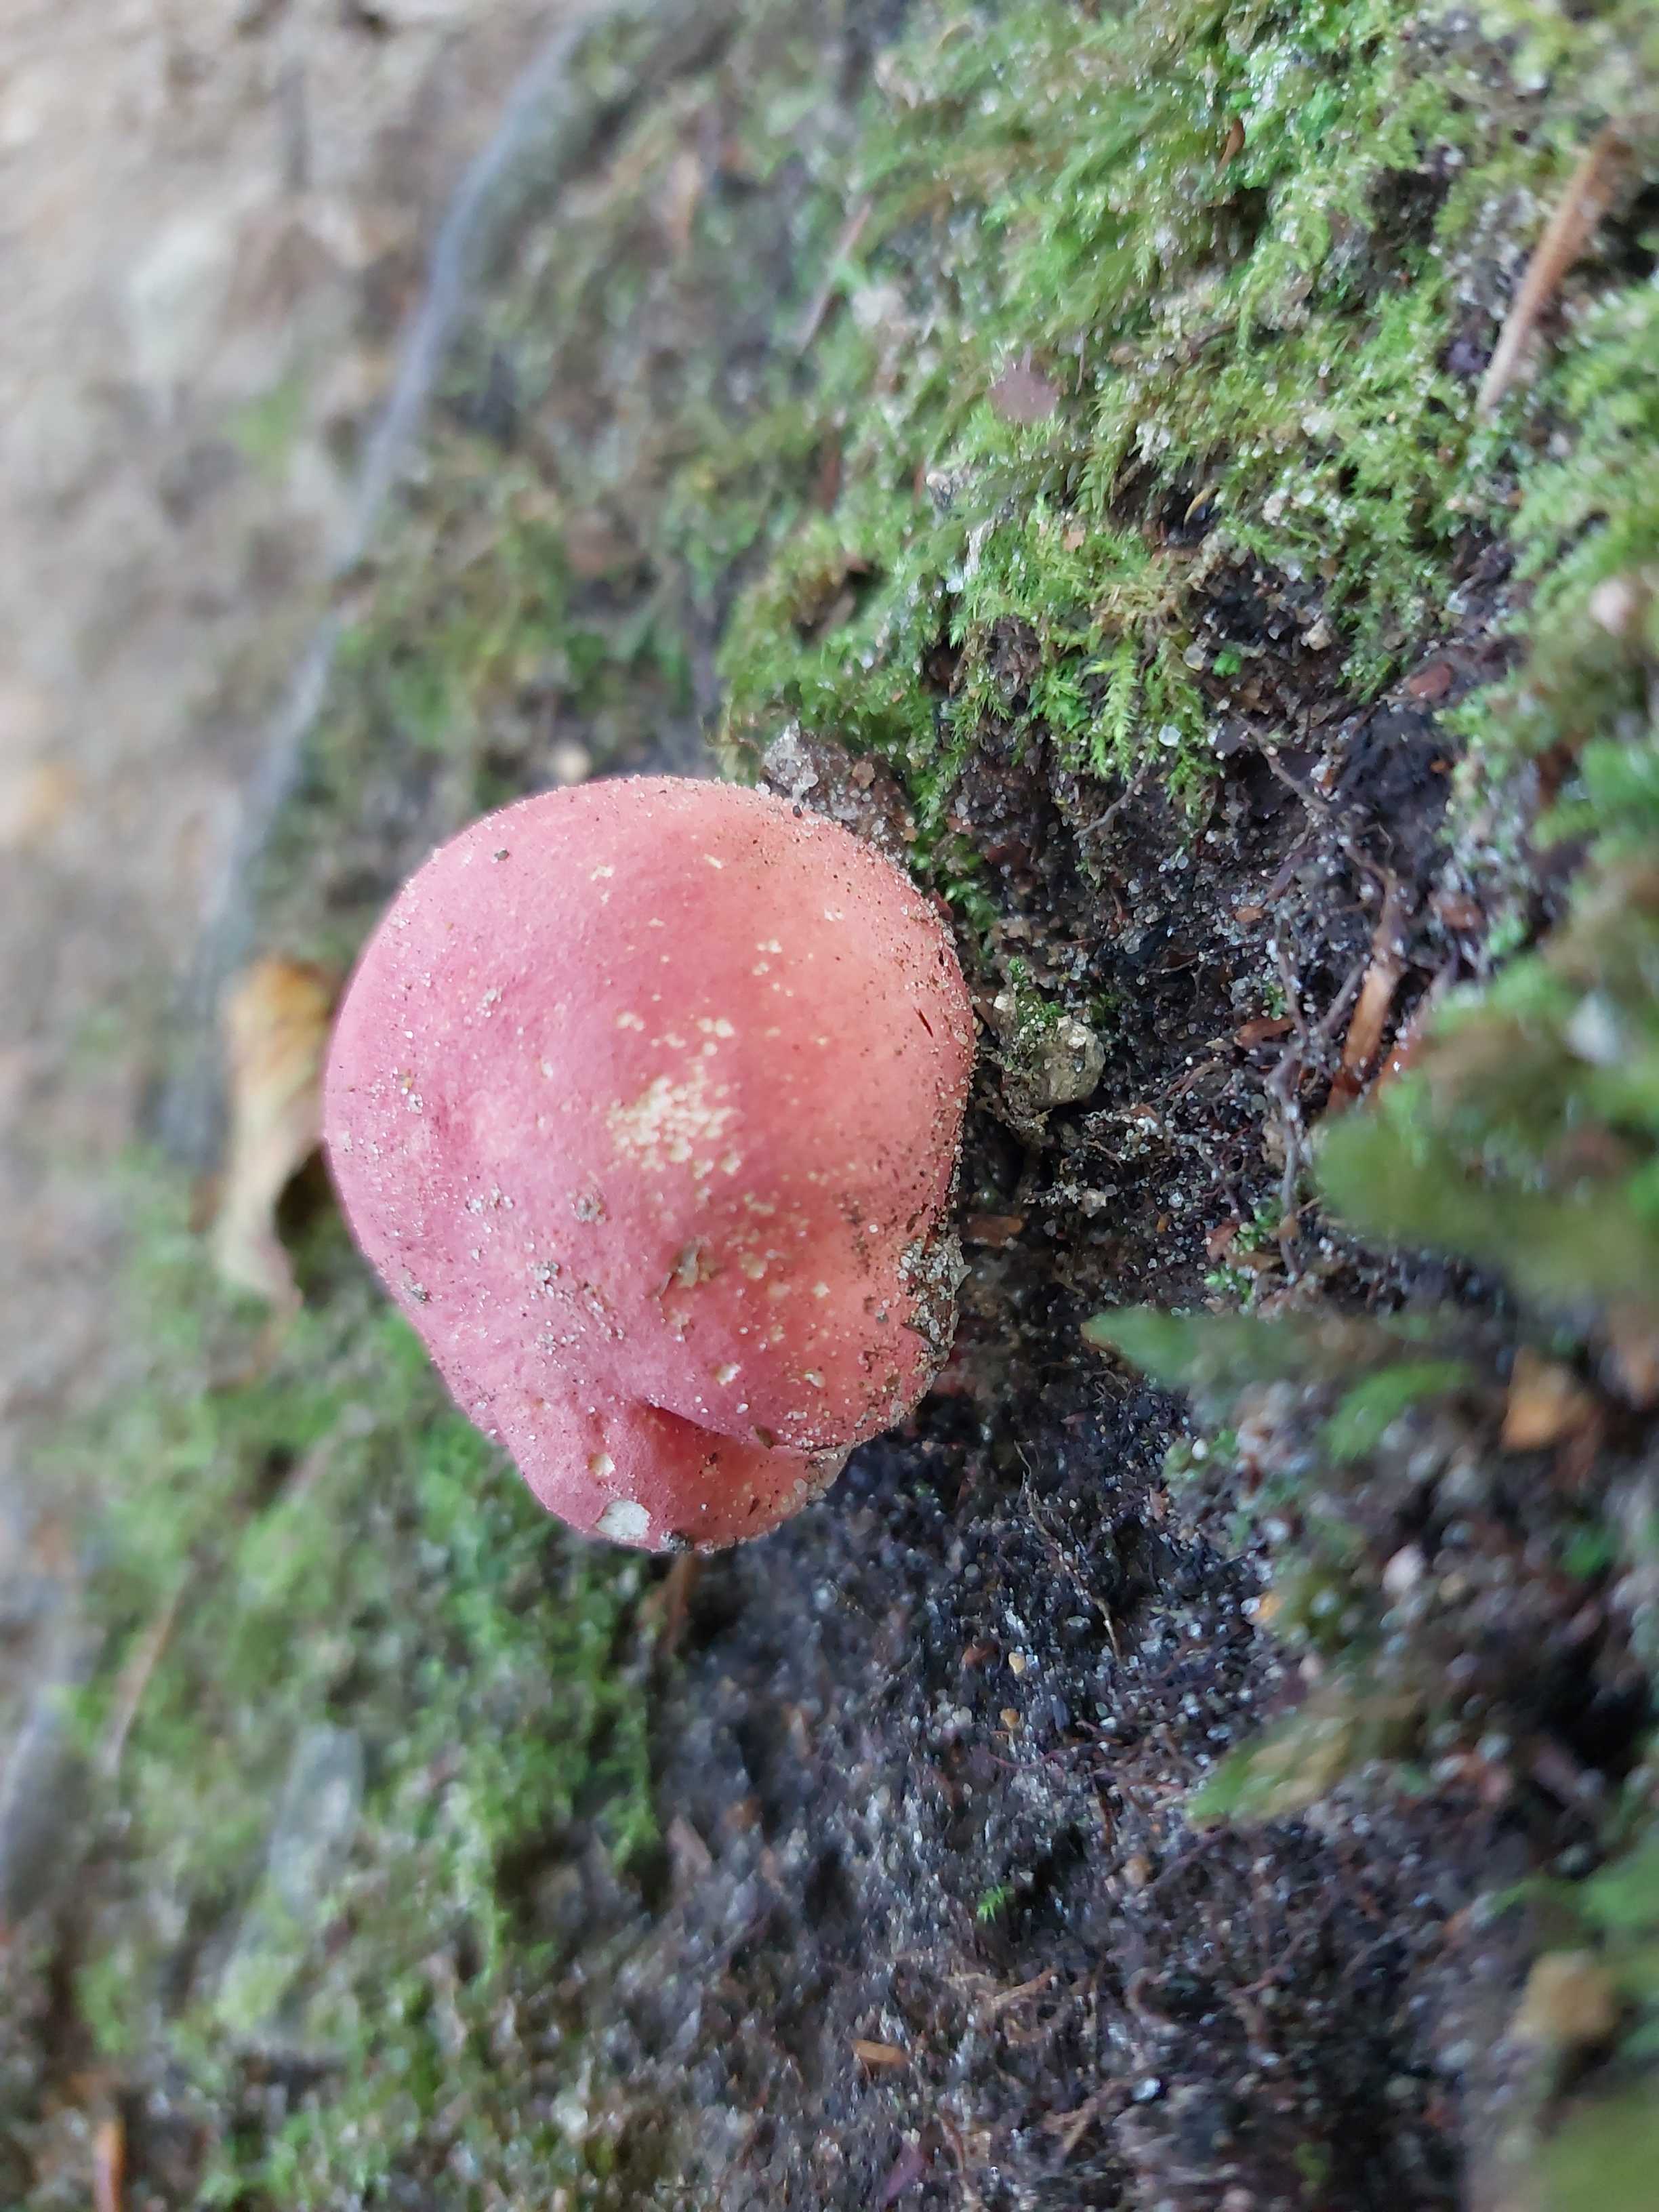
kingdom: Fungi
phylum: Basidiomycota
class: Agaricomycetes
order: Russulales
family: Russulaceae
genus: Russula
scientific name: Russula
